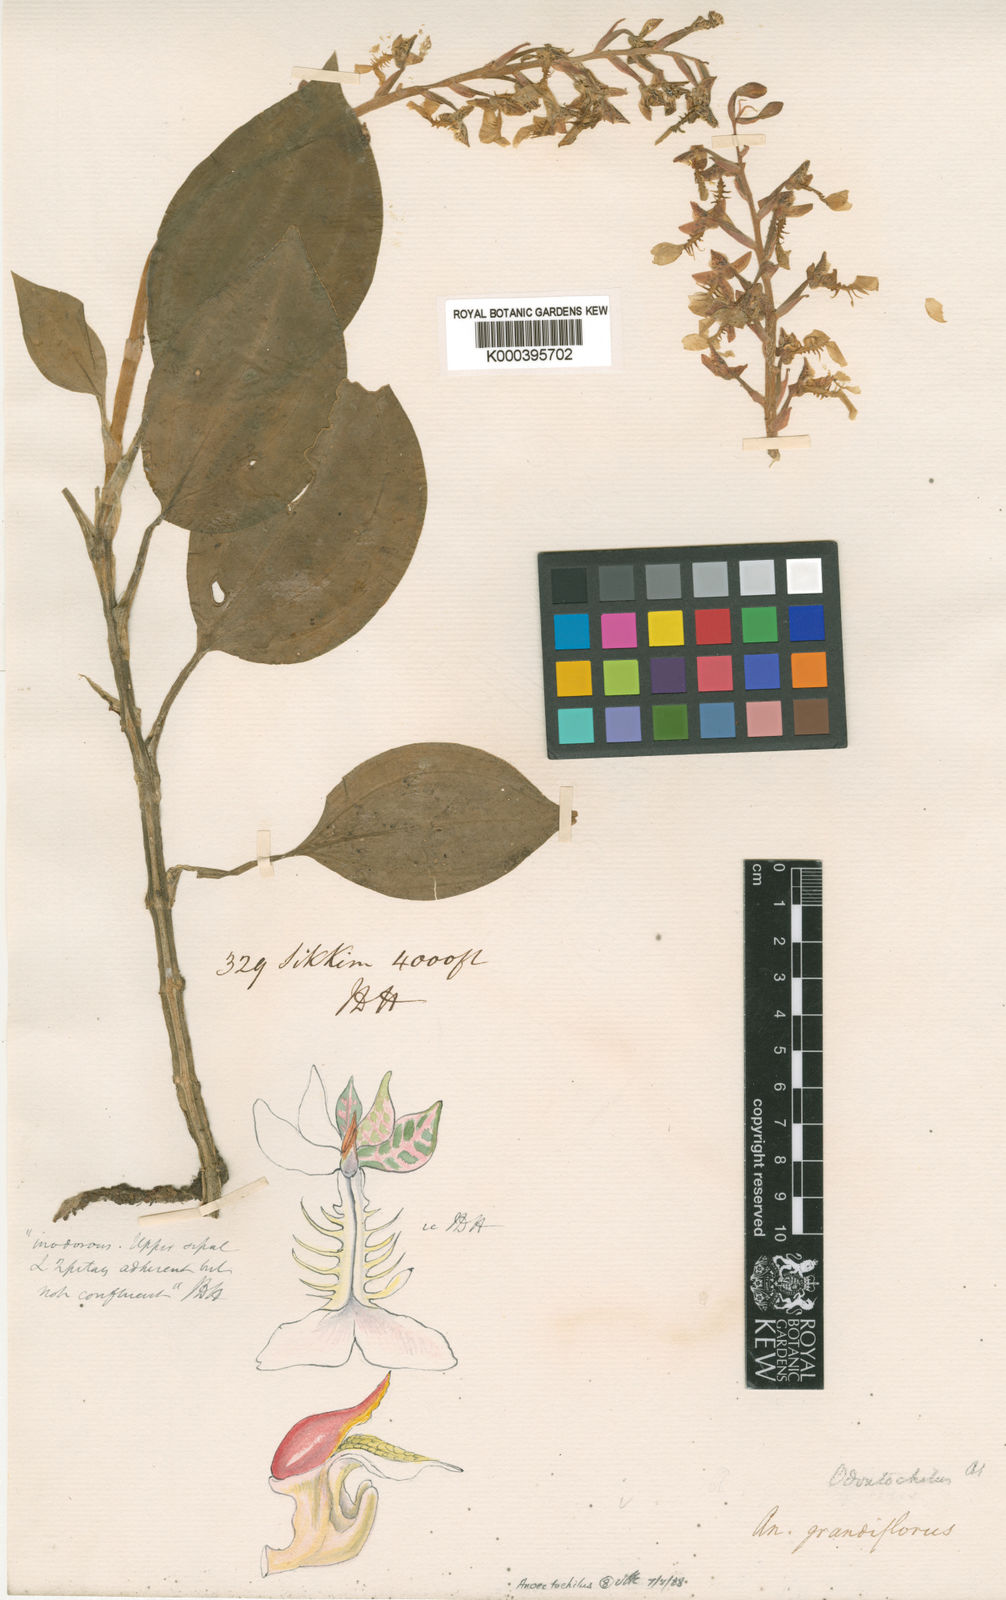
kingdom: Plantae
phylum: Tracheophyta
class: Liliopsida
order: Asparagales
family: Orchidaceae
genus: Odontochilus
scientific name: Odontochilus
